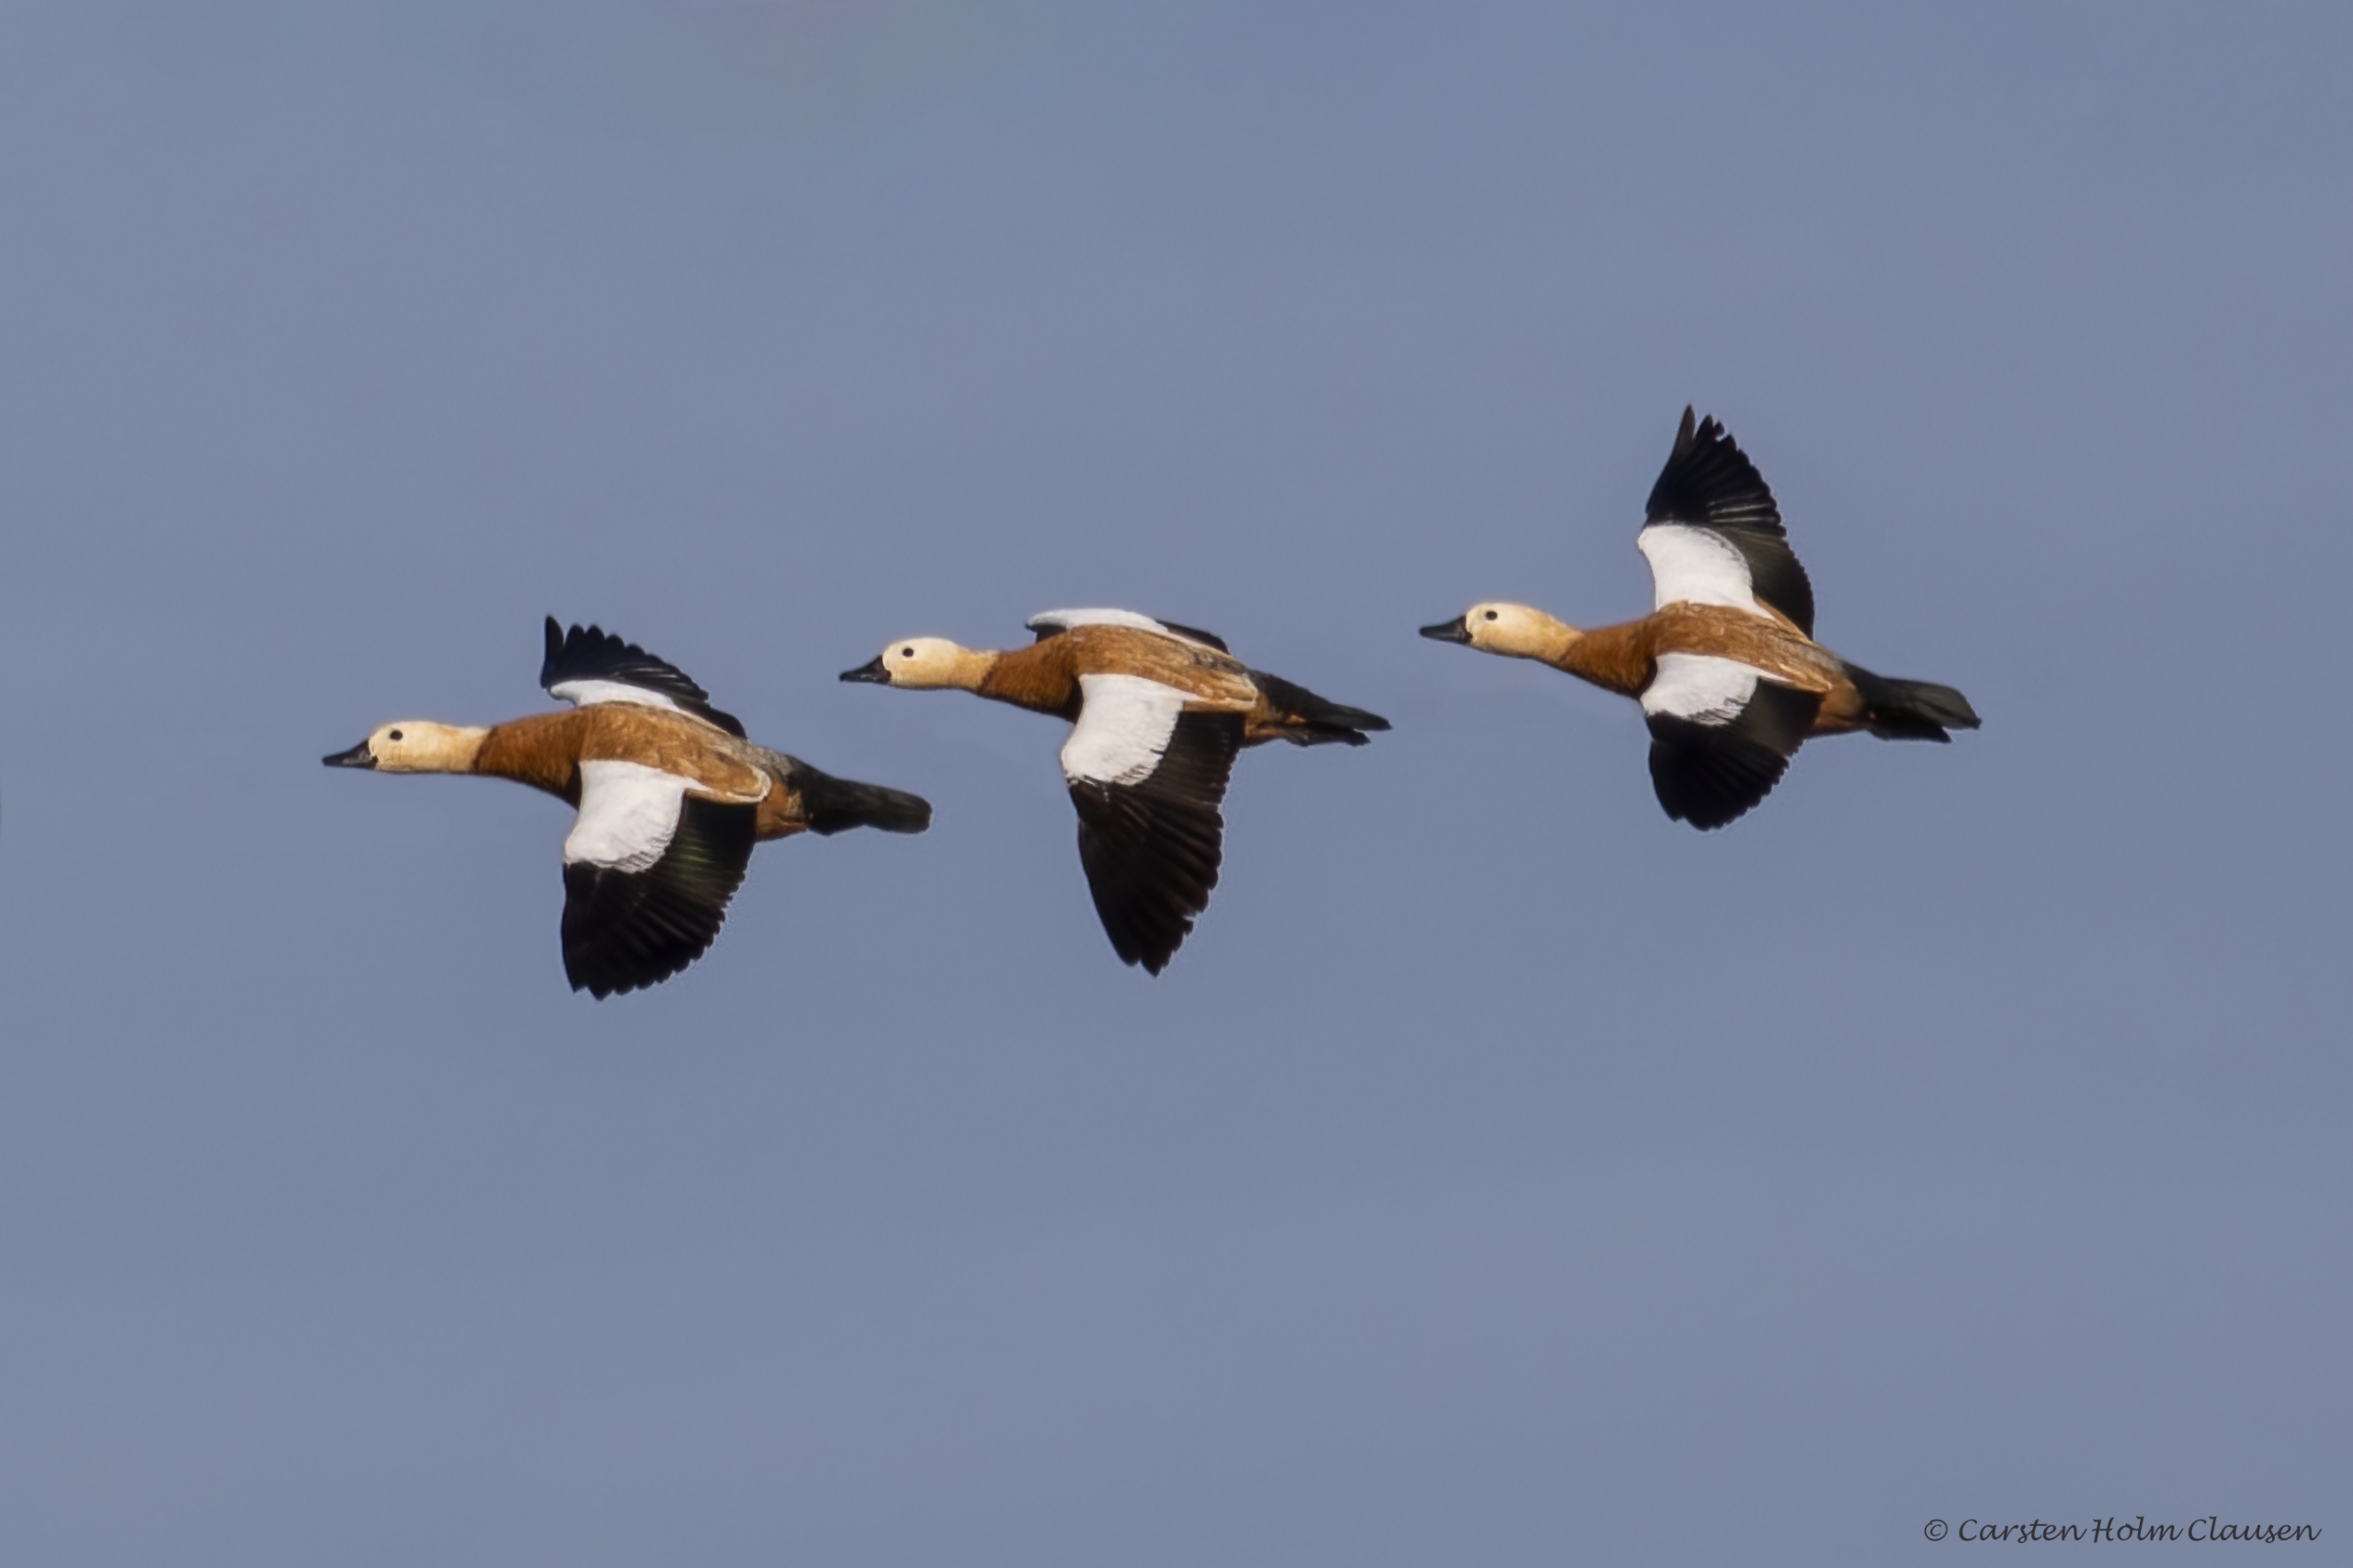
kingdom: Animalia
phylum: Chordata
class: Aves
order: Anseriformes
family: Anatidae
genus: Tadorna
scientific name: Tadorna ferruginea
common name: Rustand
